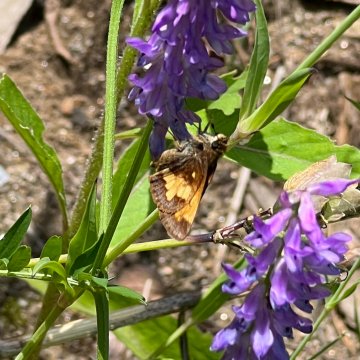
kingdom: Animalia
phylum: Arthropoda
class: Insecta
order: Lepidoptera
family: Hesperiidae
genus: Lon
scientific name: Lon hobomok
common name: Hobomok Skipper
